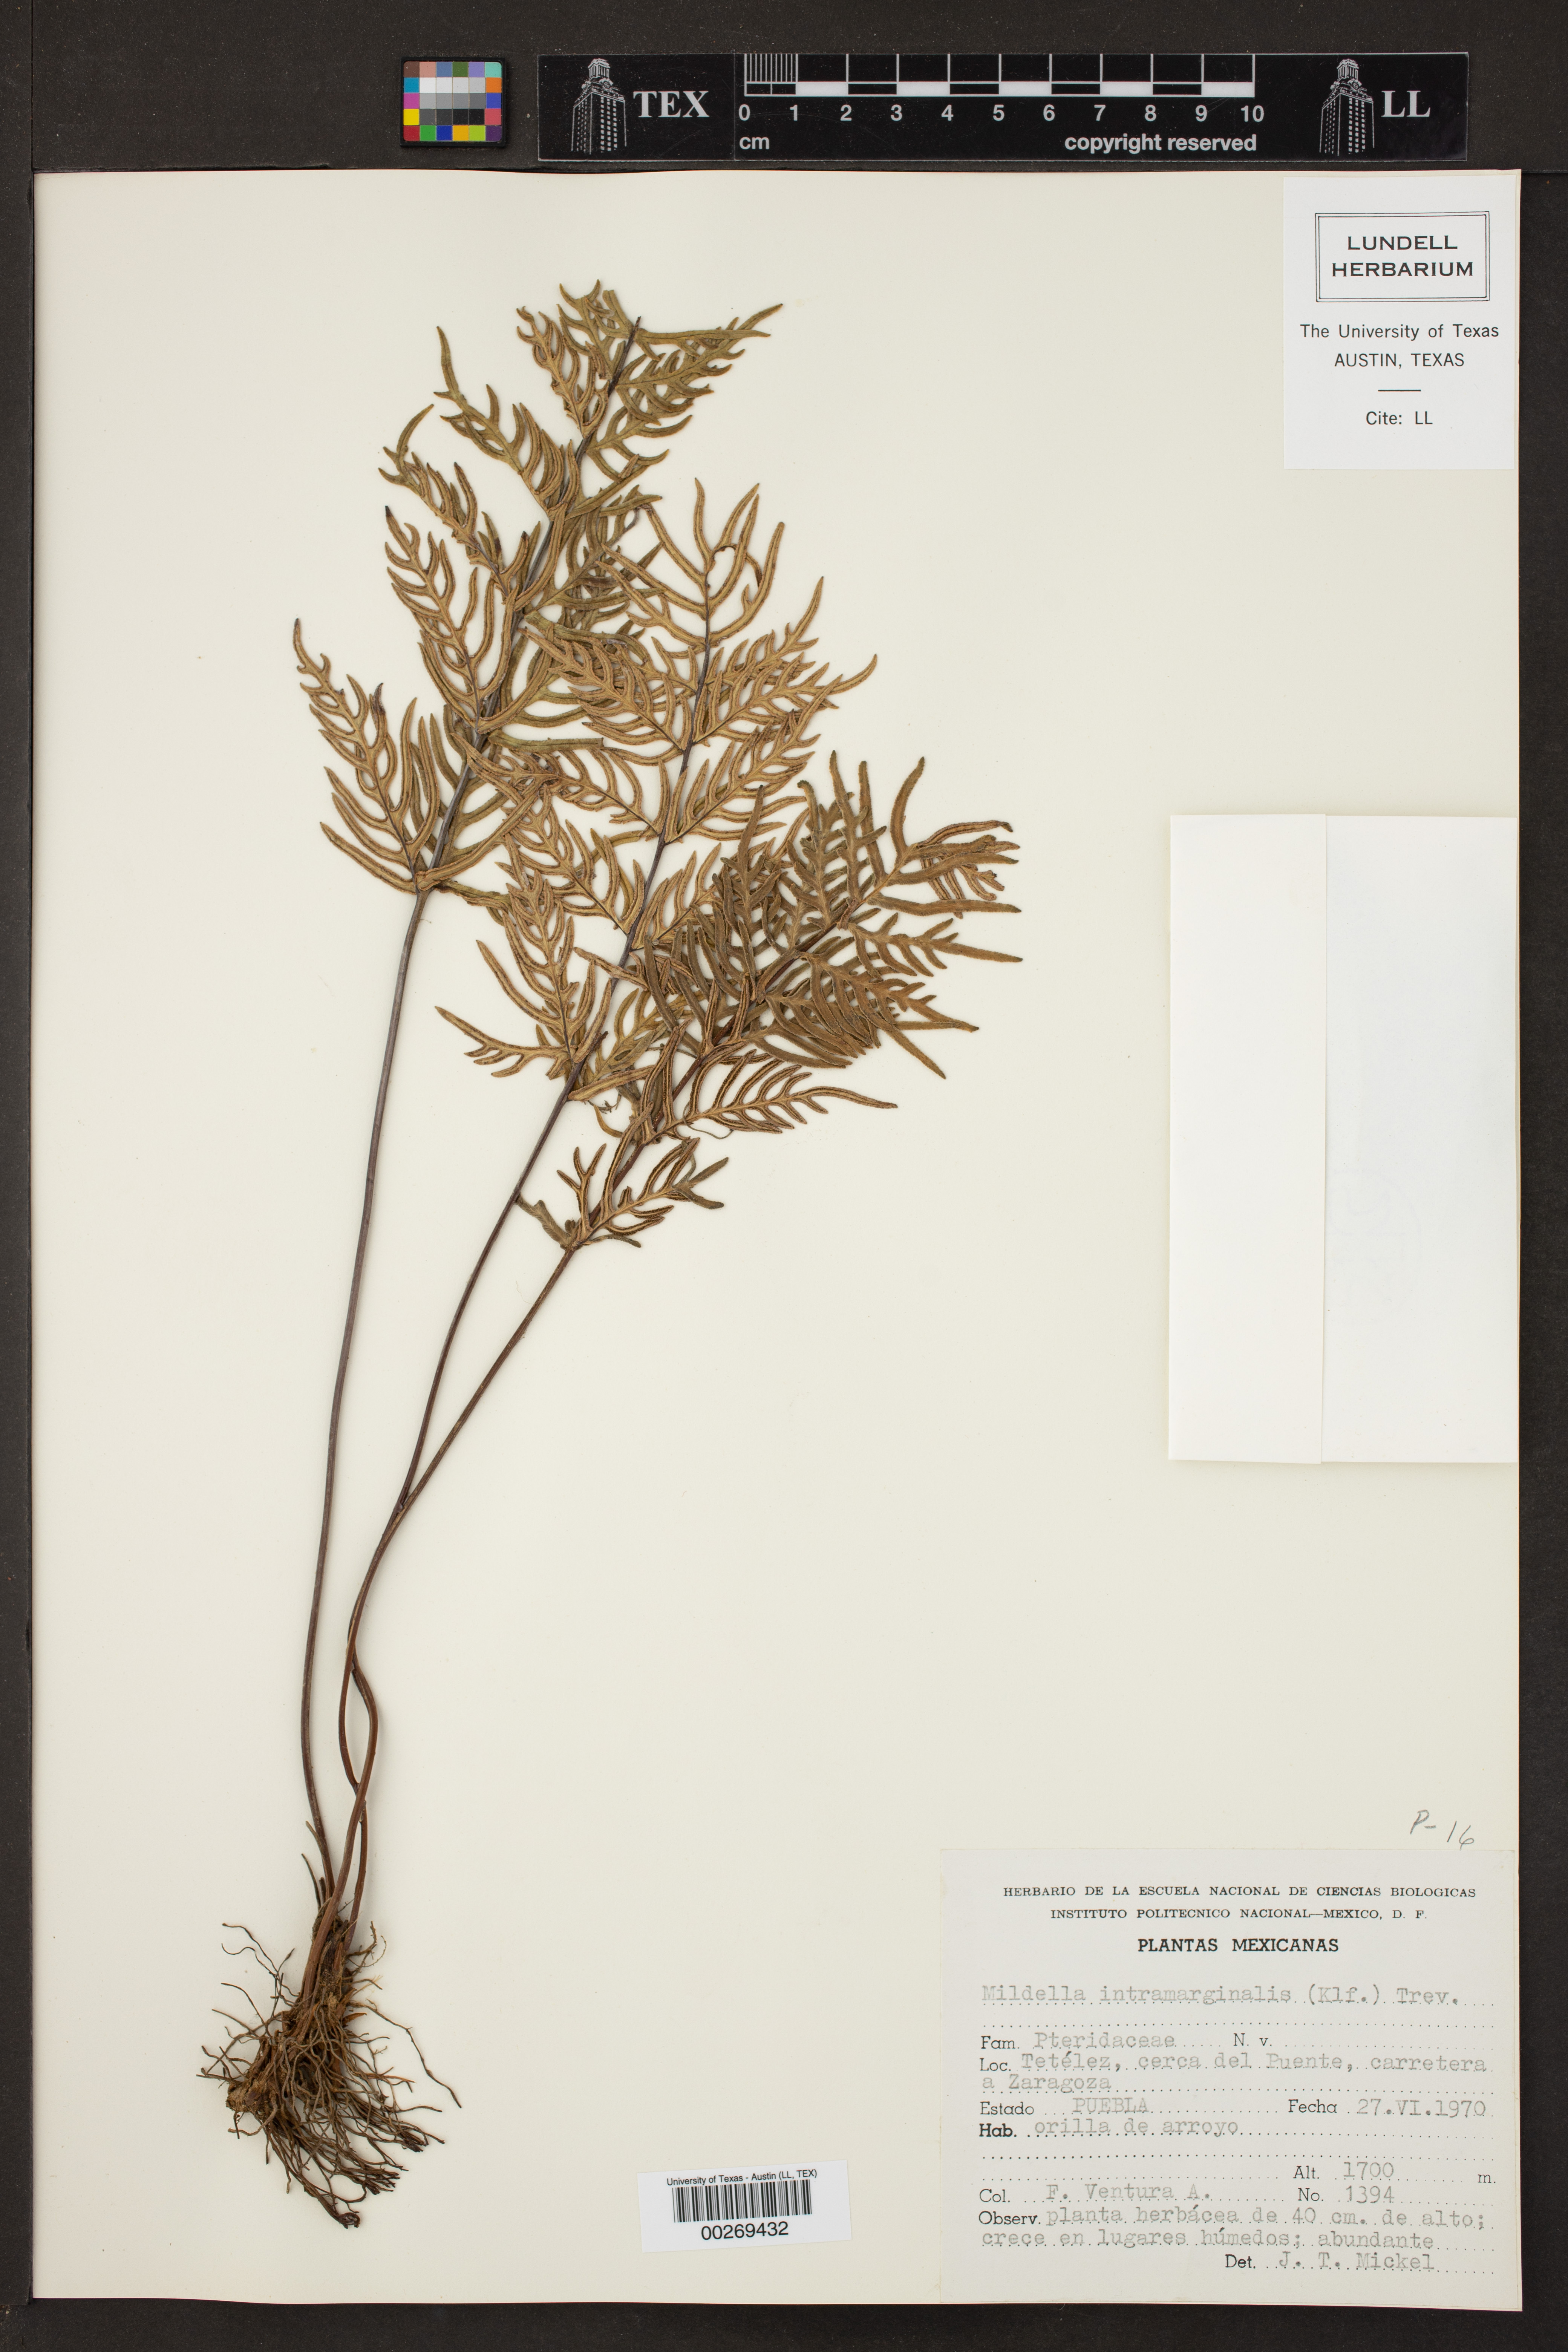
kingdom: Plantae
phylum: Tracheophyta
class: Polypodiopsida
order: Polypodiales
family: Pteridaceae
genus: Mildella
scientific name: Mildella intramarginalis
